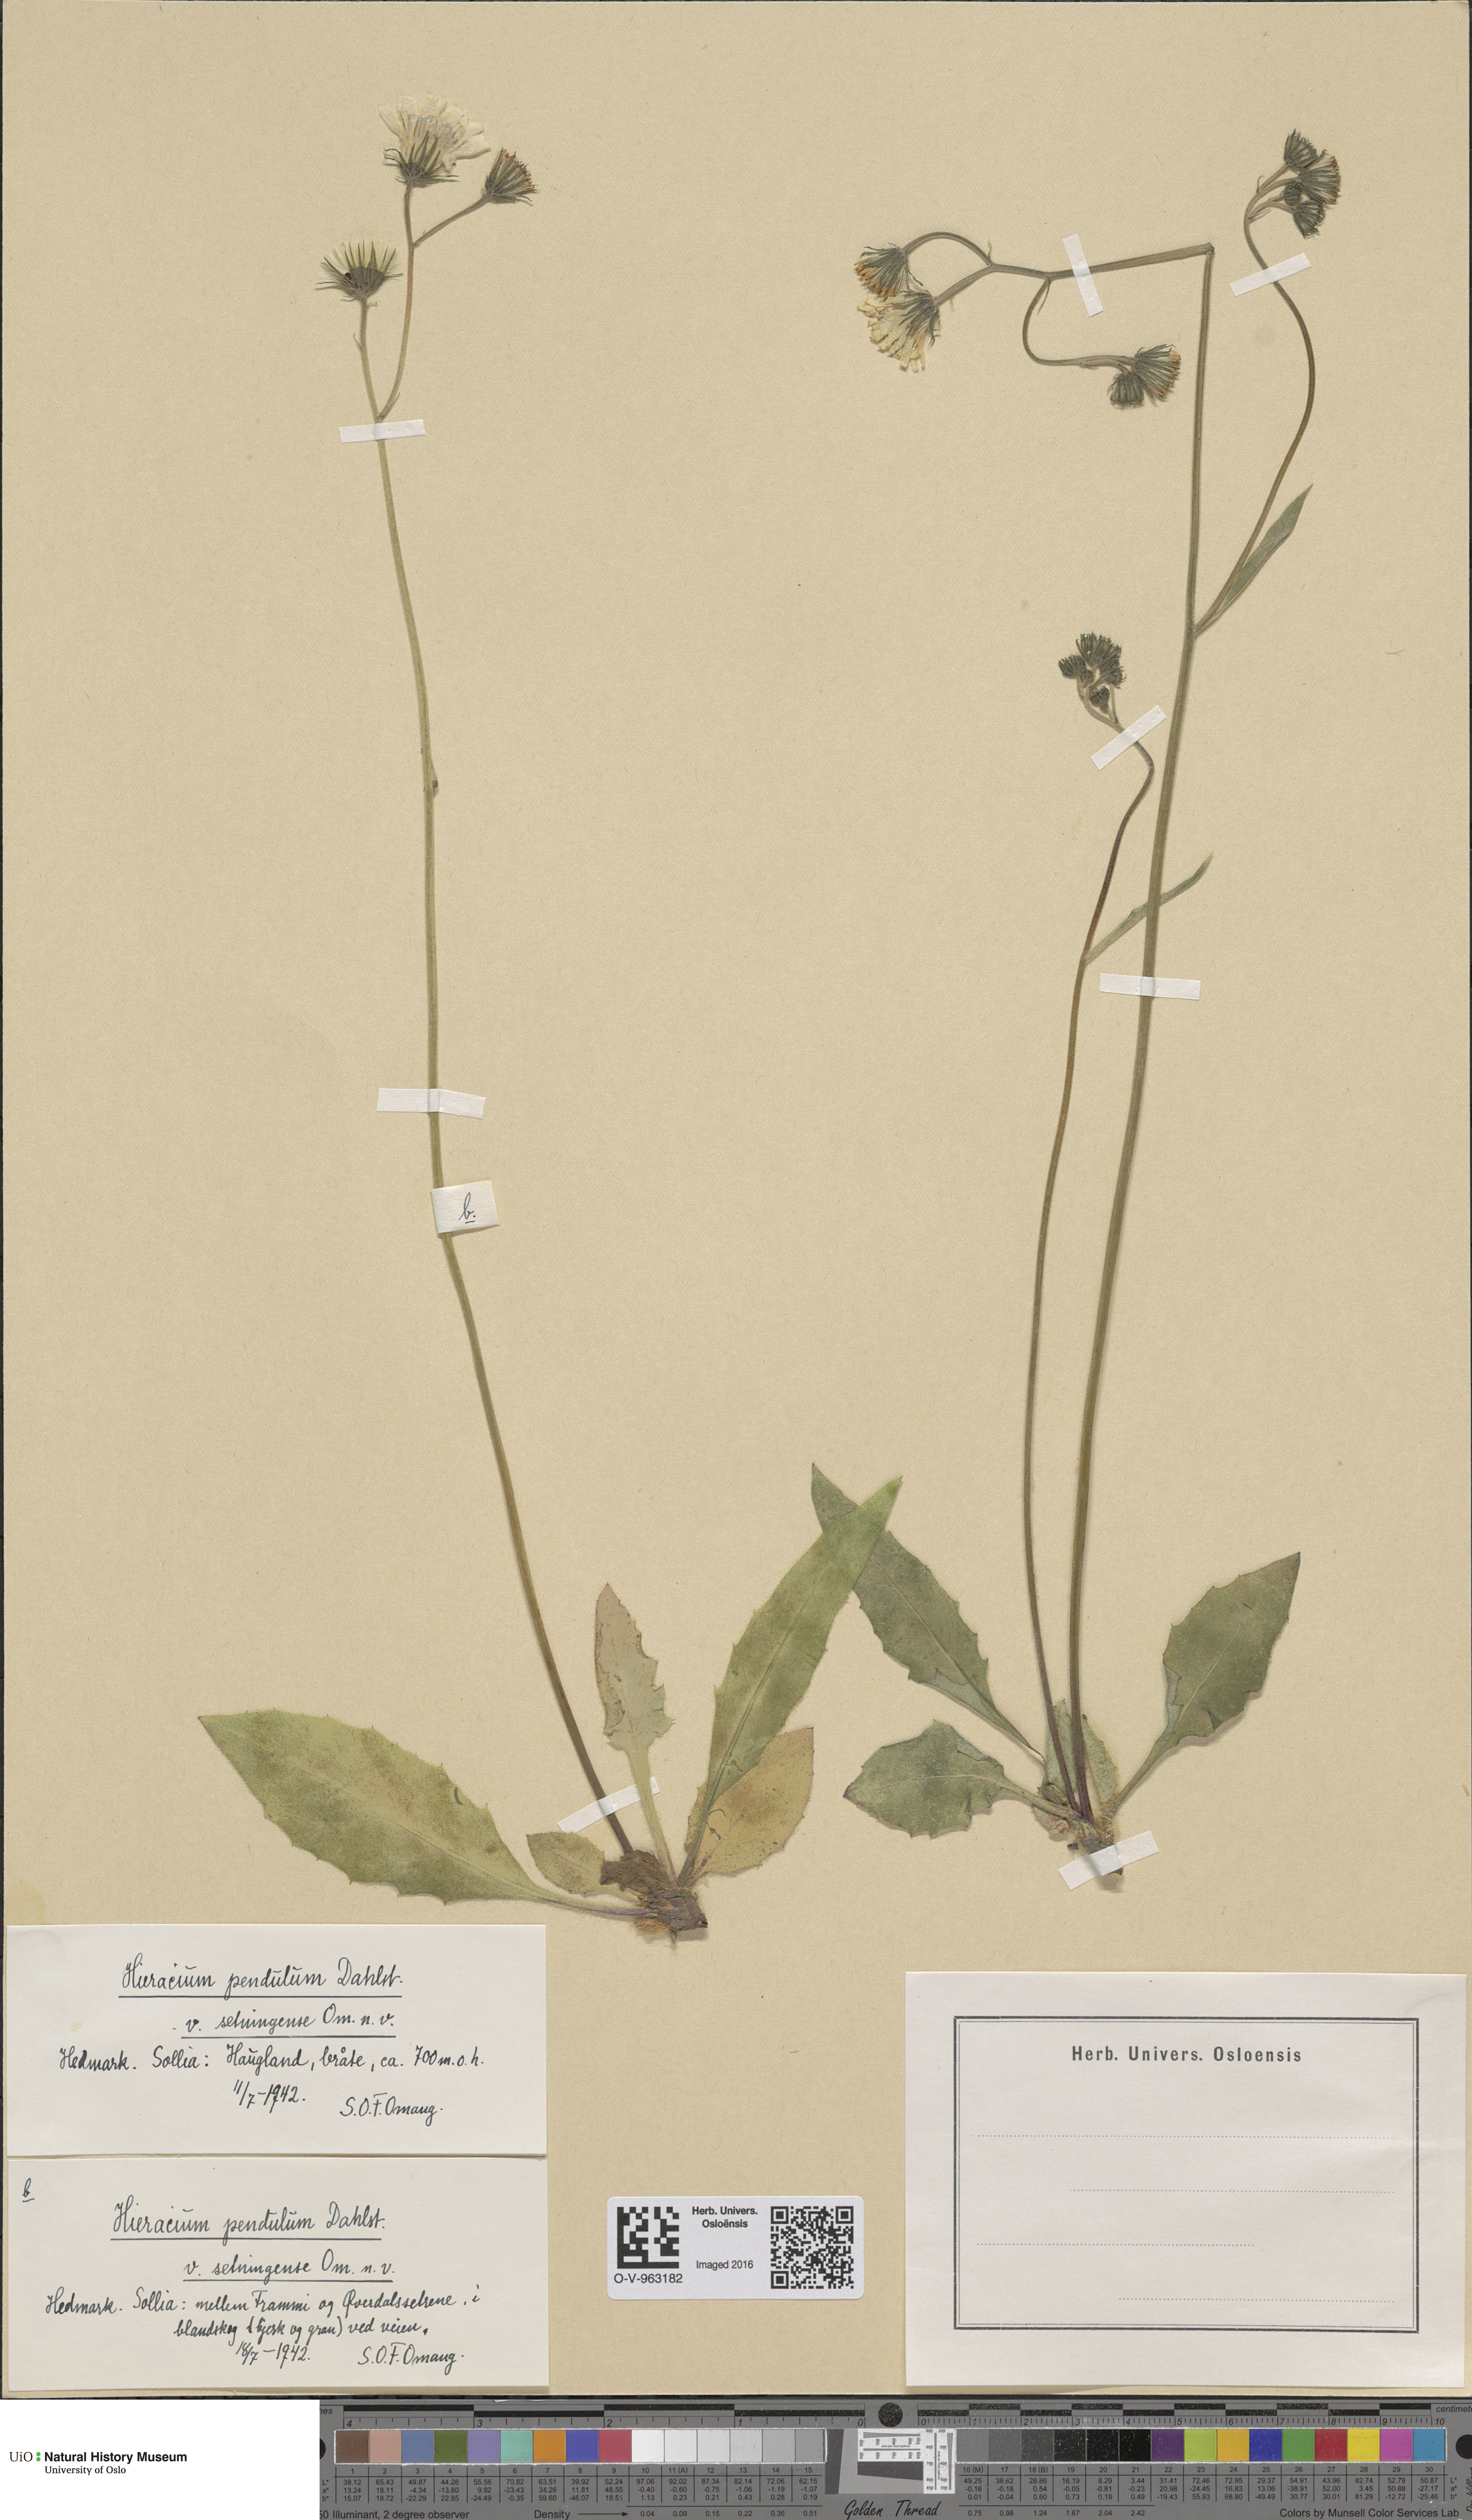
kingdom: Plantae
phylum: Tracheophyta
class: Magnoliopsida
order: Asterales
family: Asteraceae
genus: Hieracium
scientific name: Hieracium pendulum
